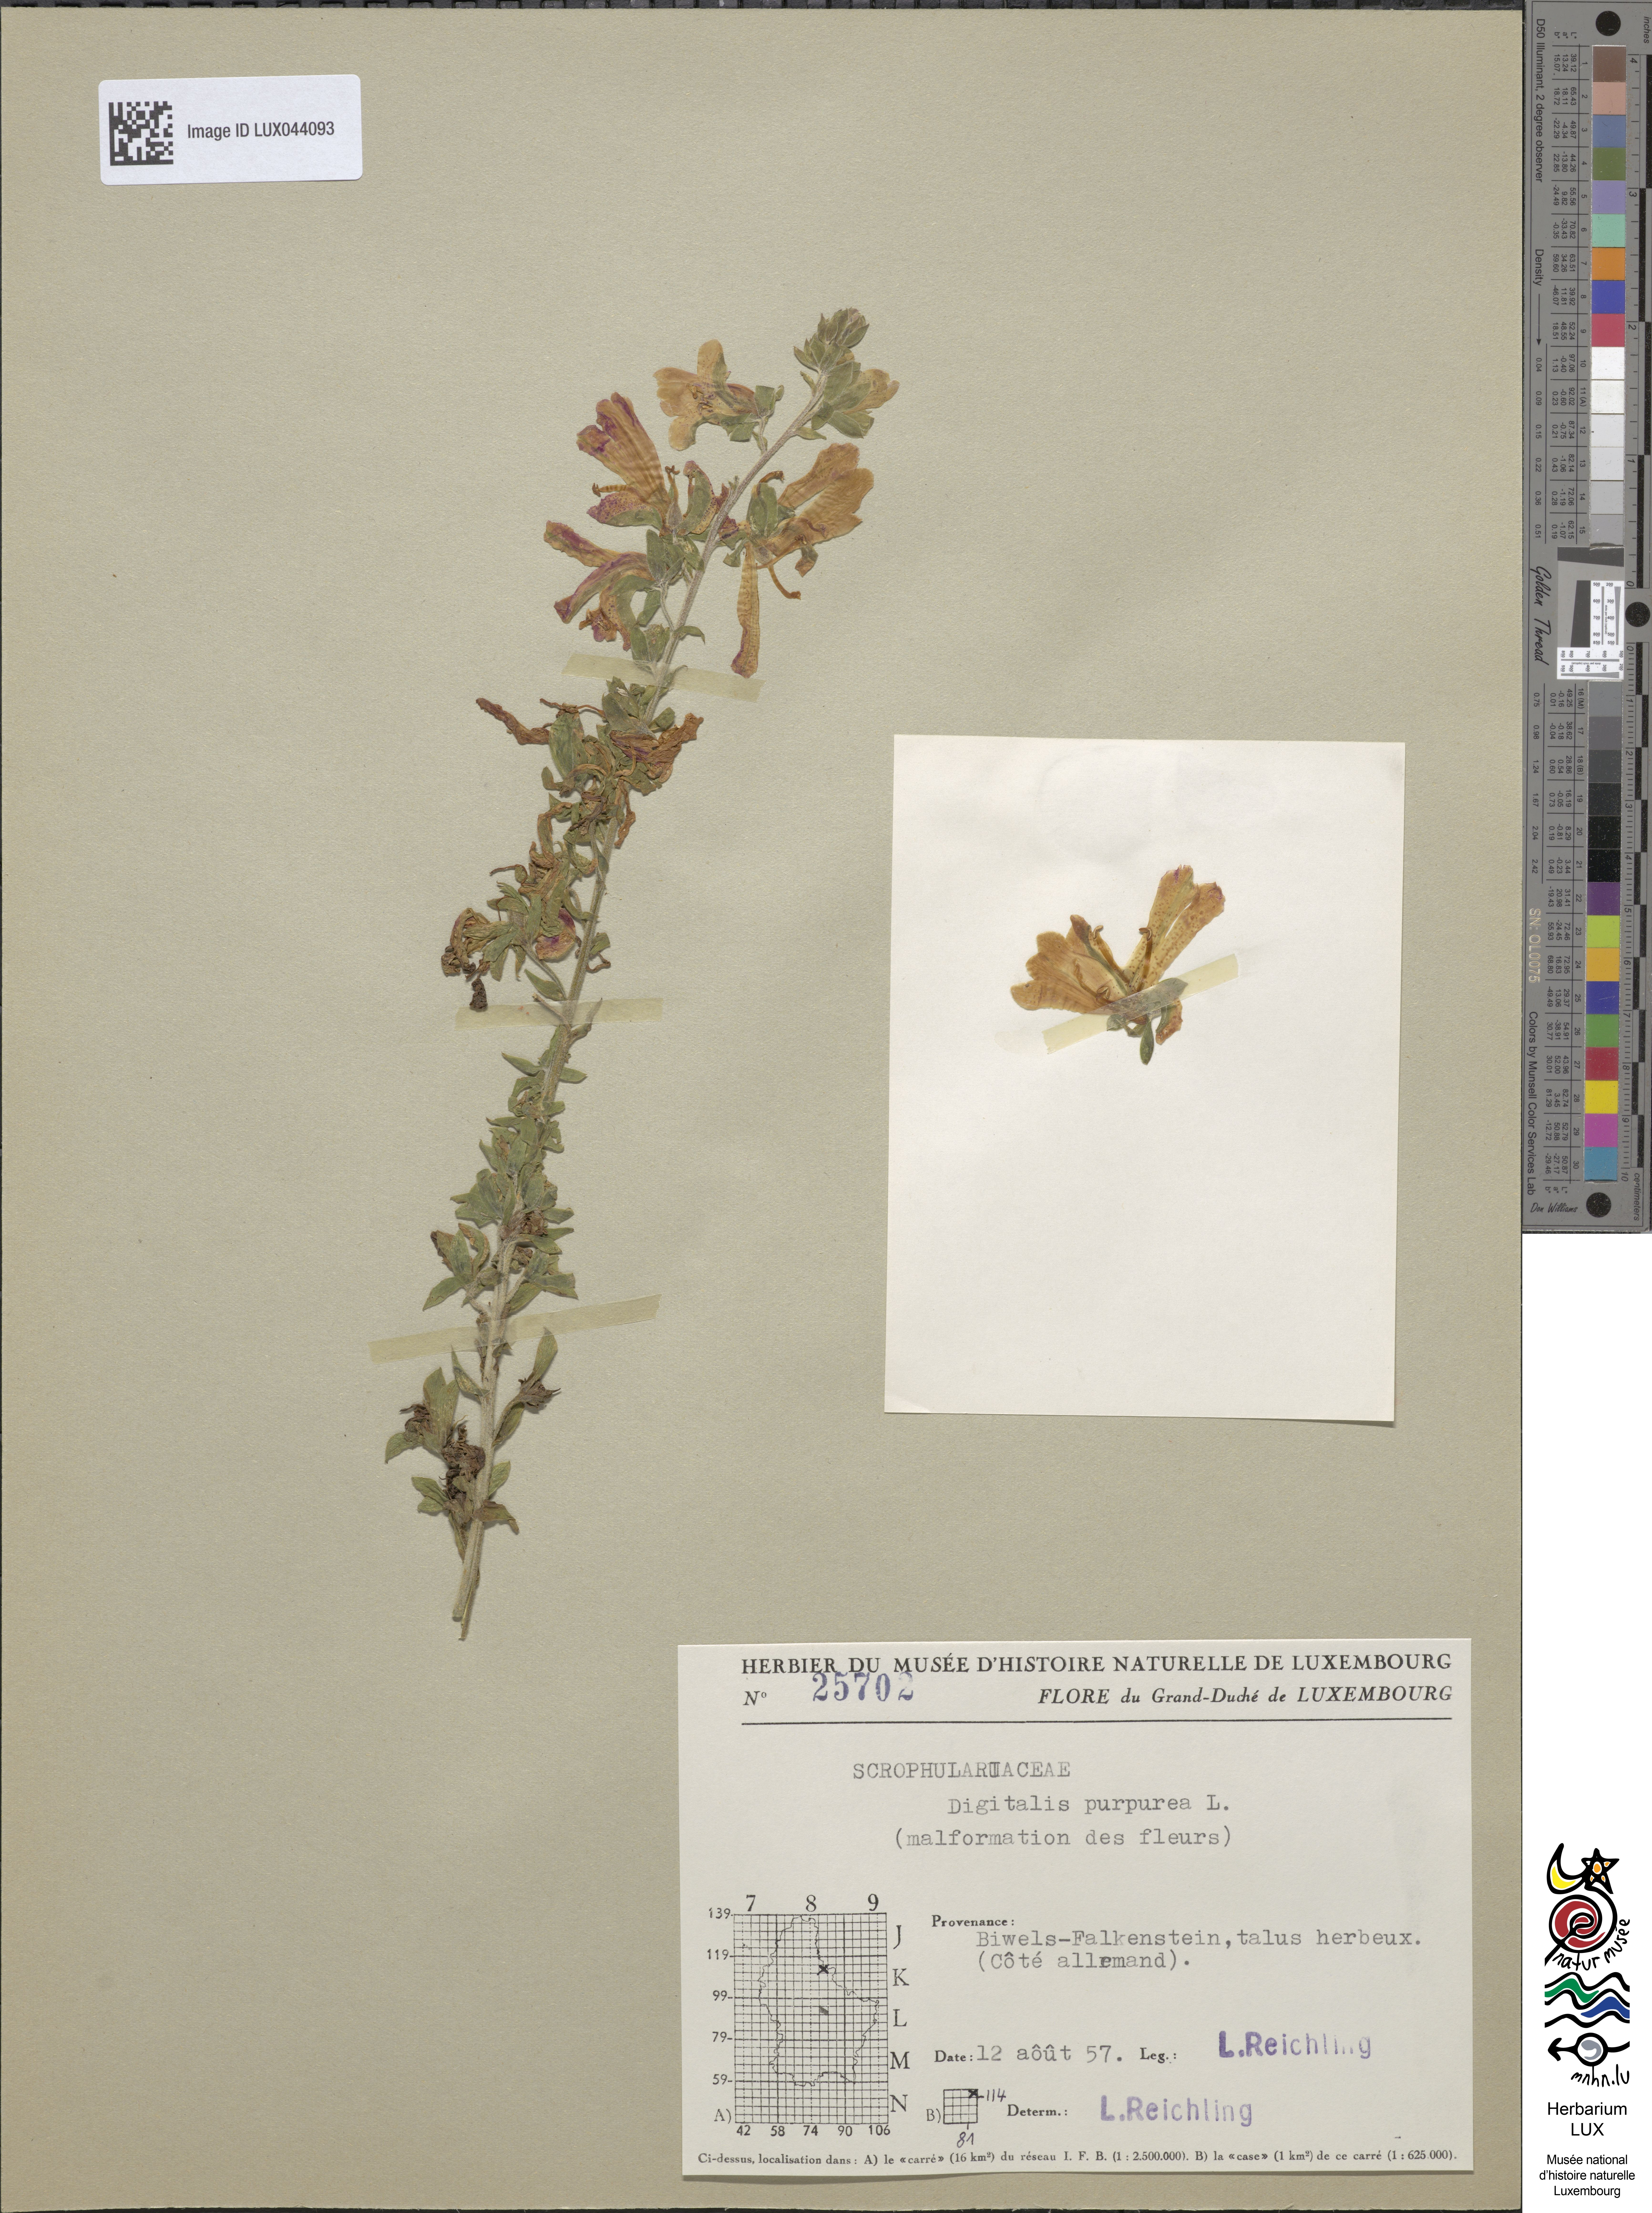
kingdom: Plantae
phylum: Tracheophyta
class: Magnoliopsida
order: Lamiales
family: Plantaginaceae
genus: Digitalis
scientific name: Digitalis purpurea
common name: Foxglove
